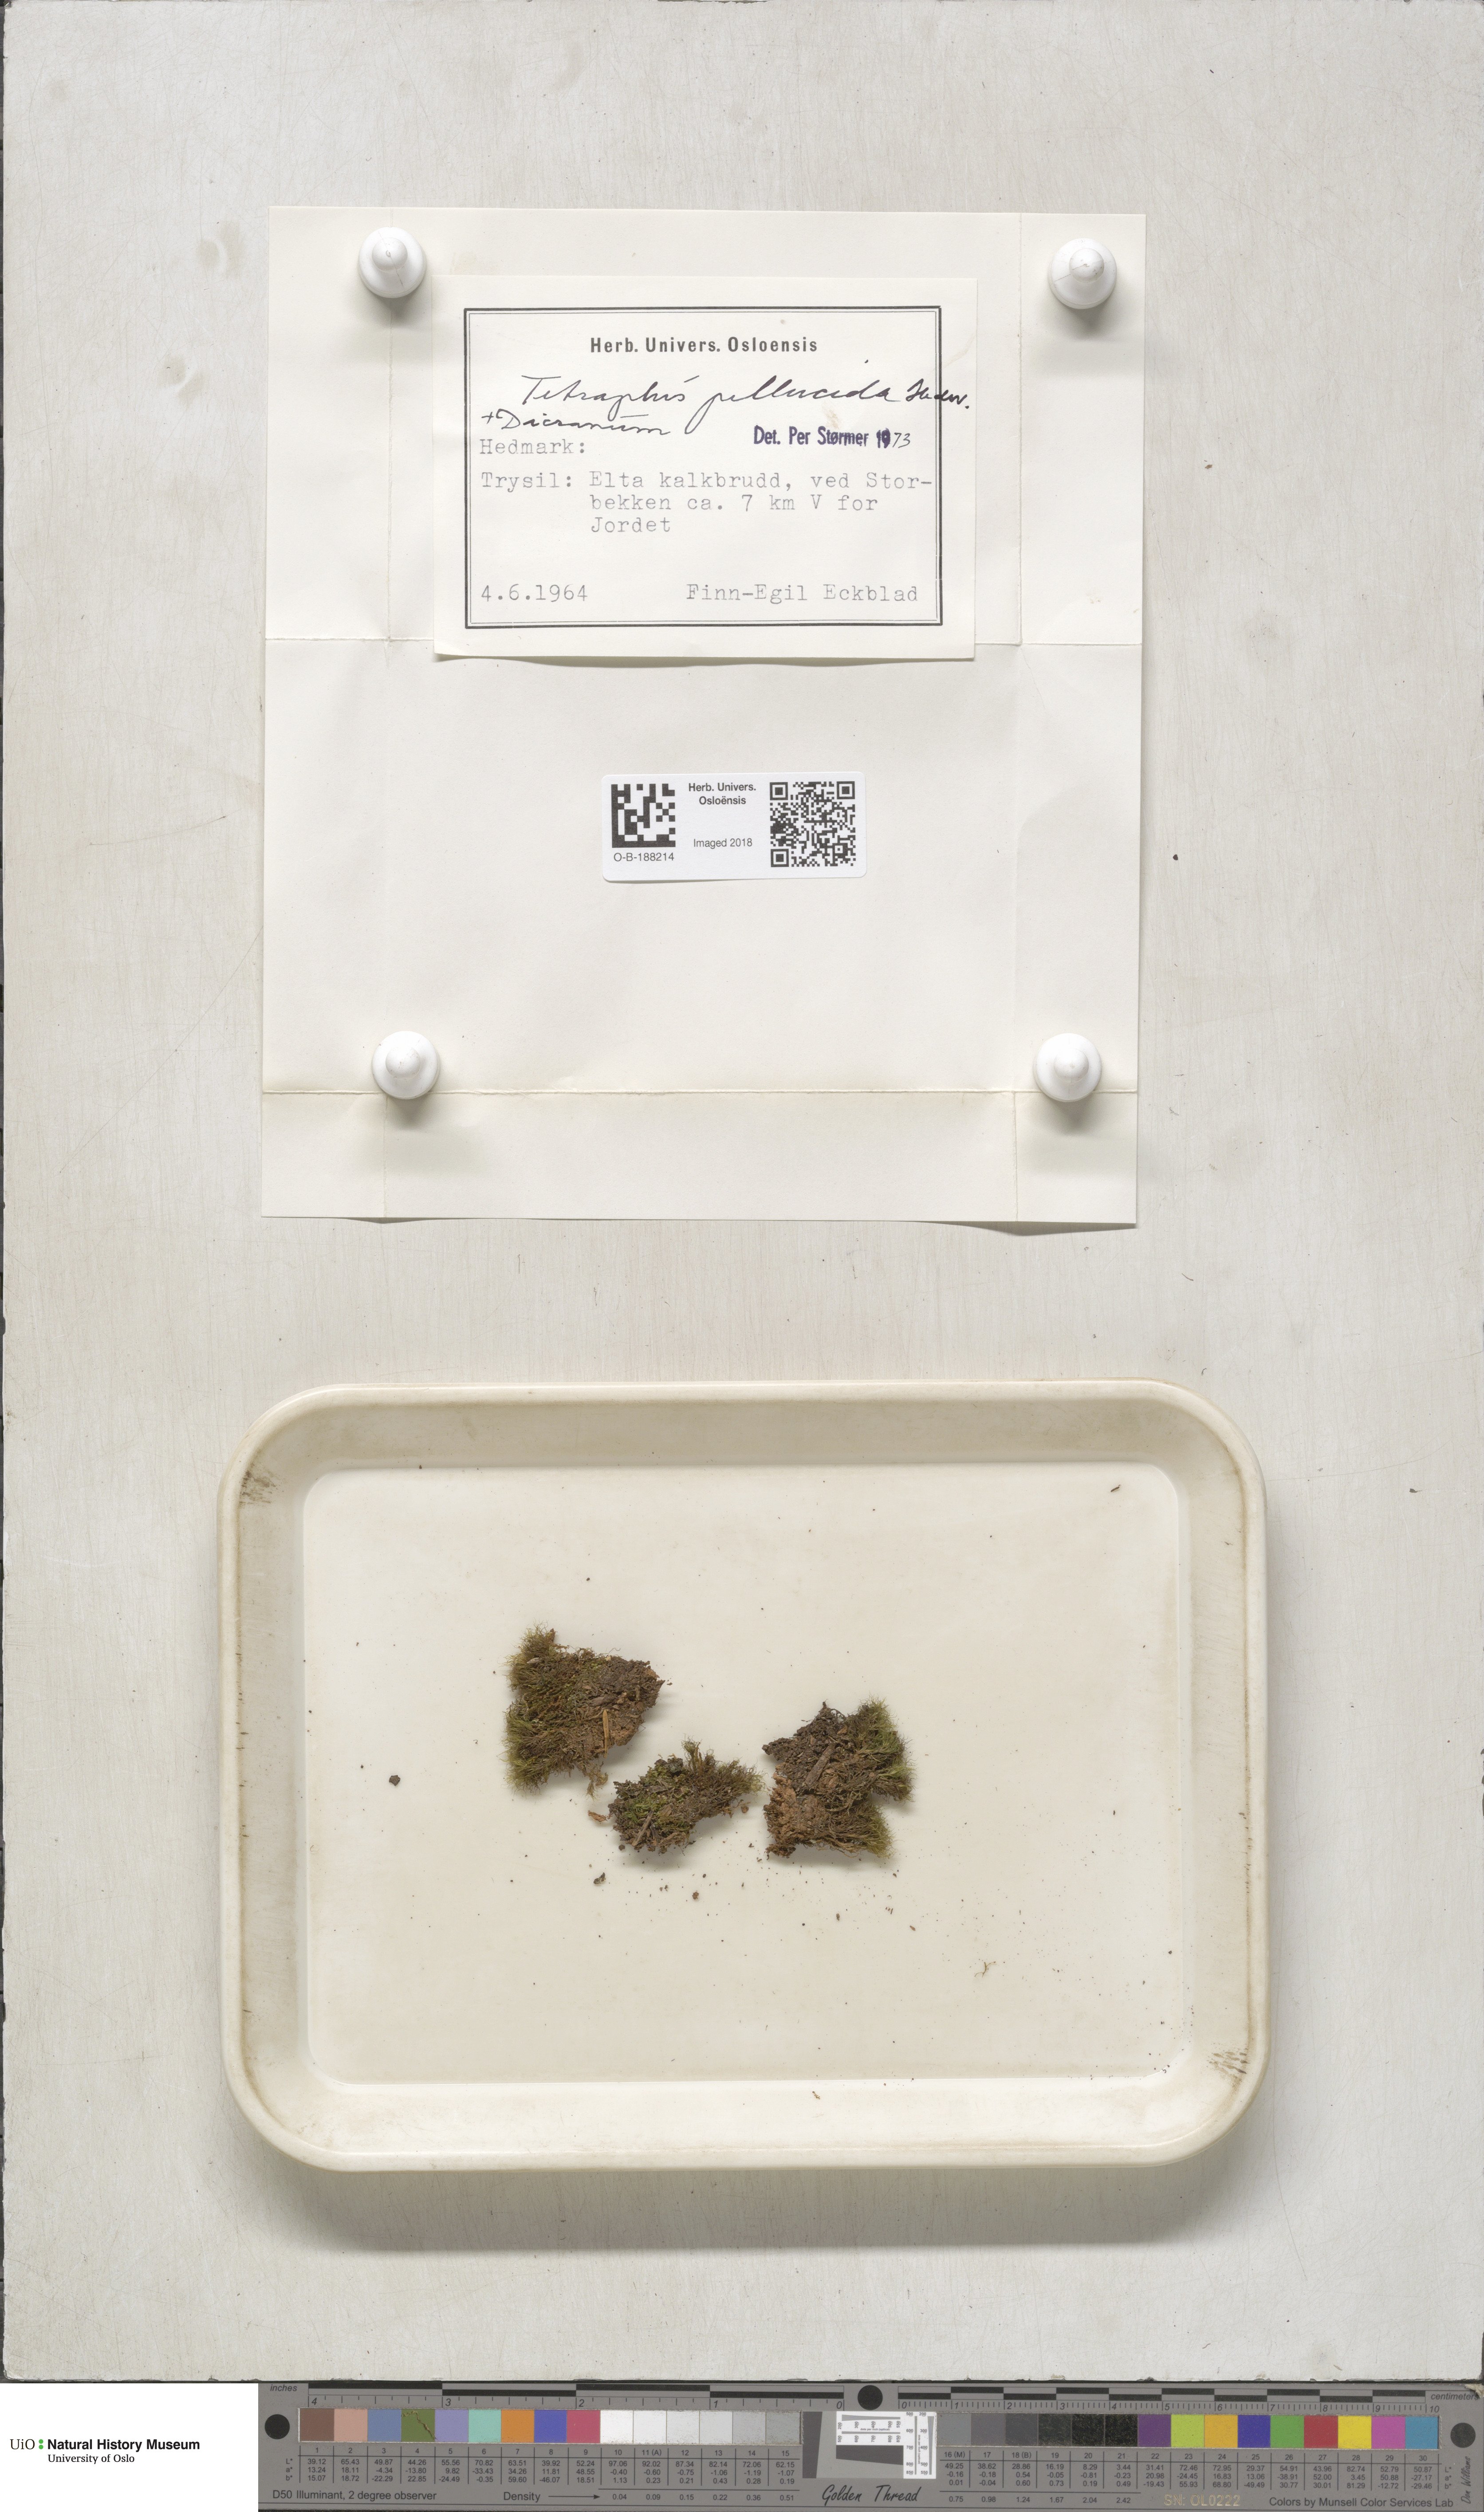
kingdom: Plantae
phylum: Bryophyta
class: Polytrichopsida
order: Tetraphidales
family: Tetraphidaceae
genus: Tetraphis
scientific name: Tetraphis pellucida
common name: Common four-toothed moss
